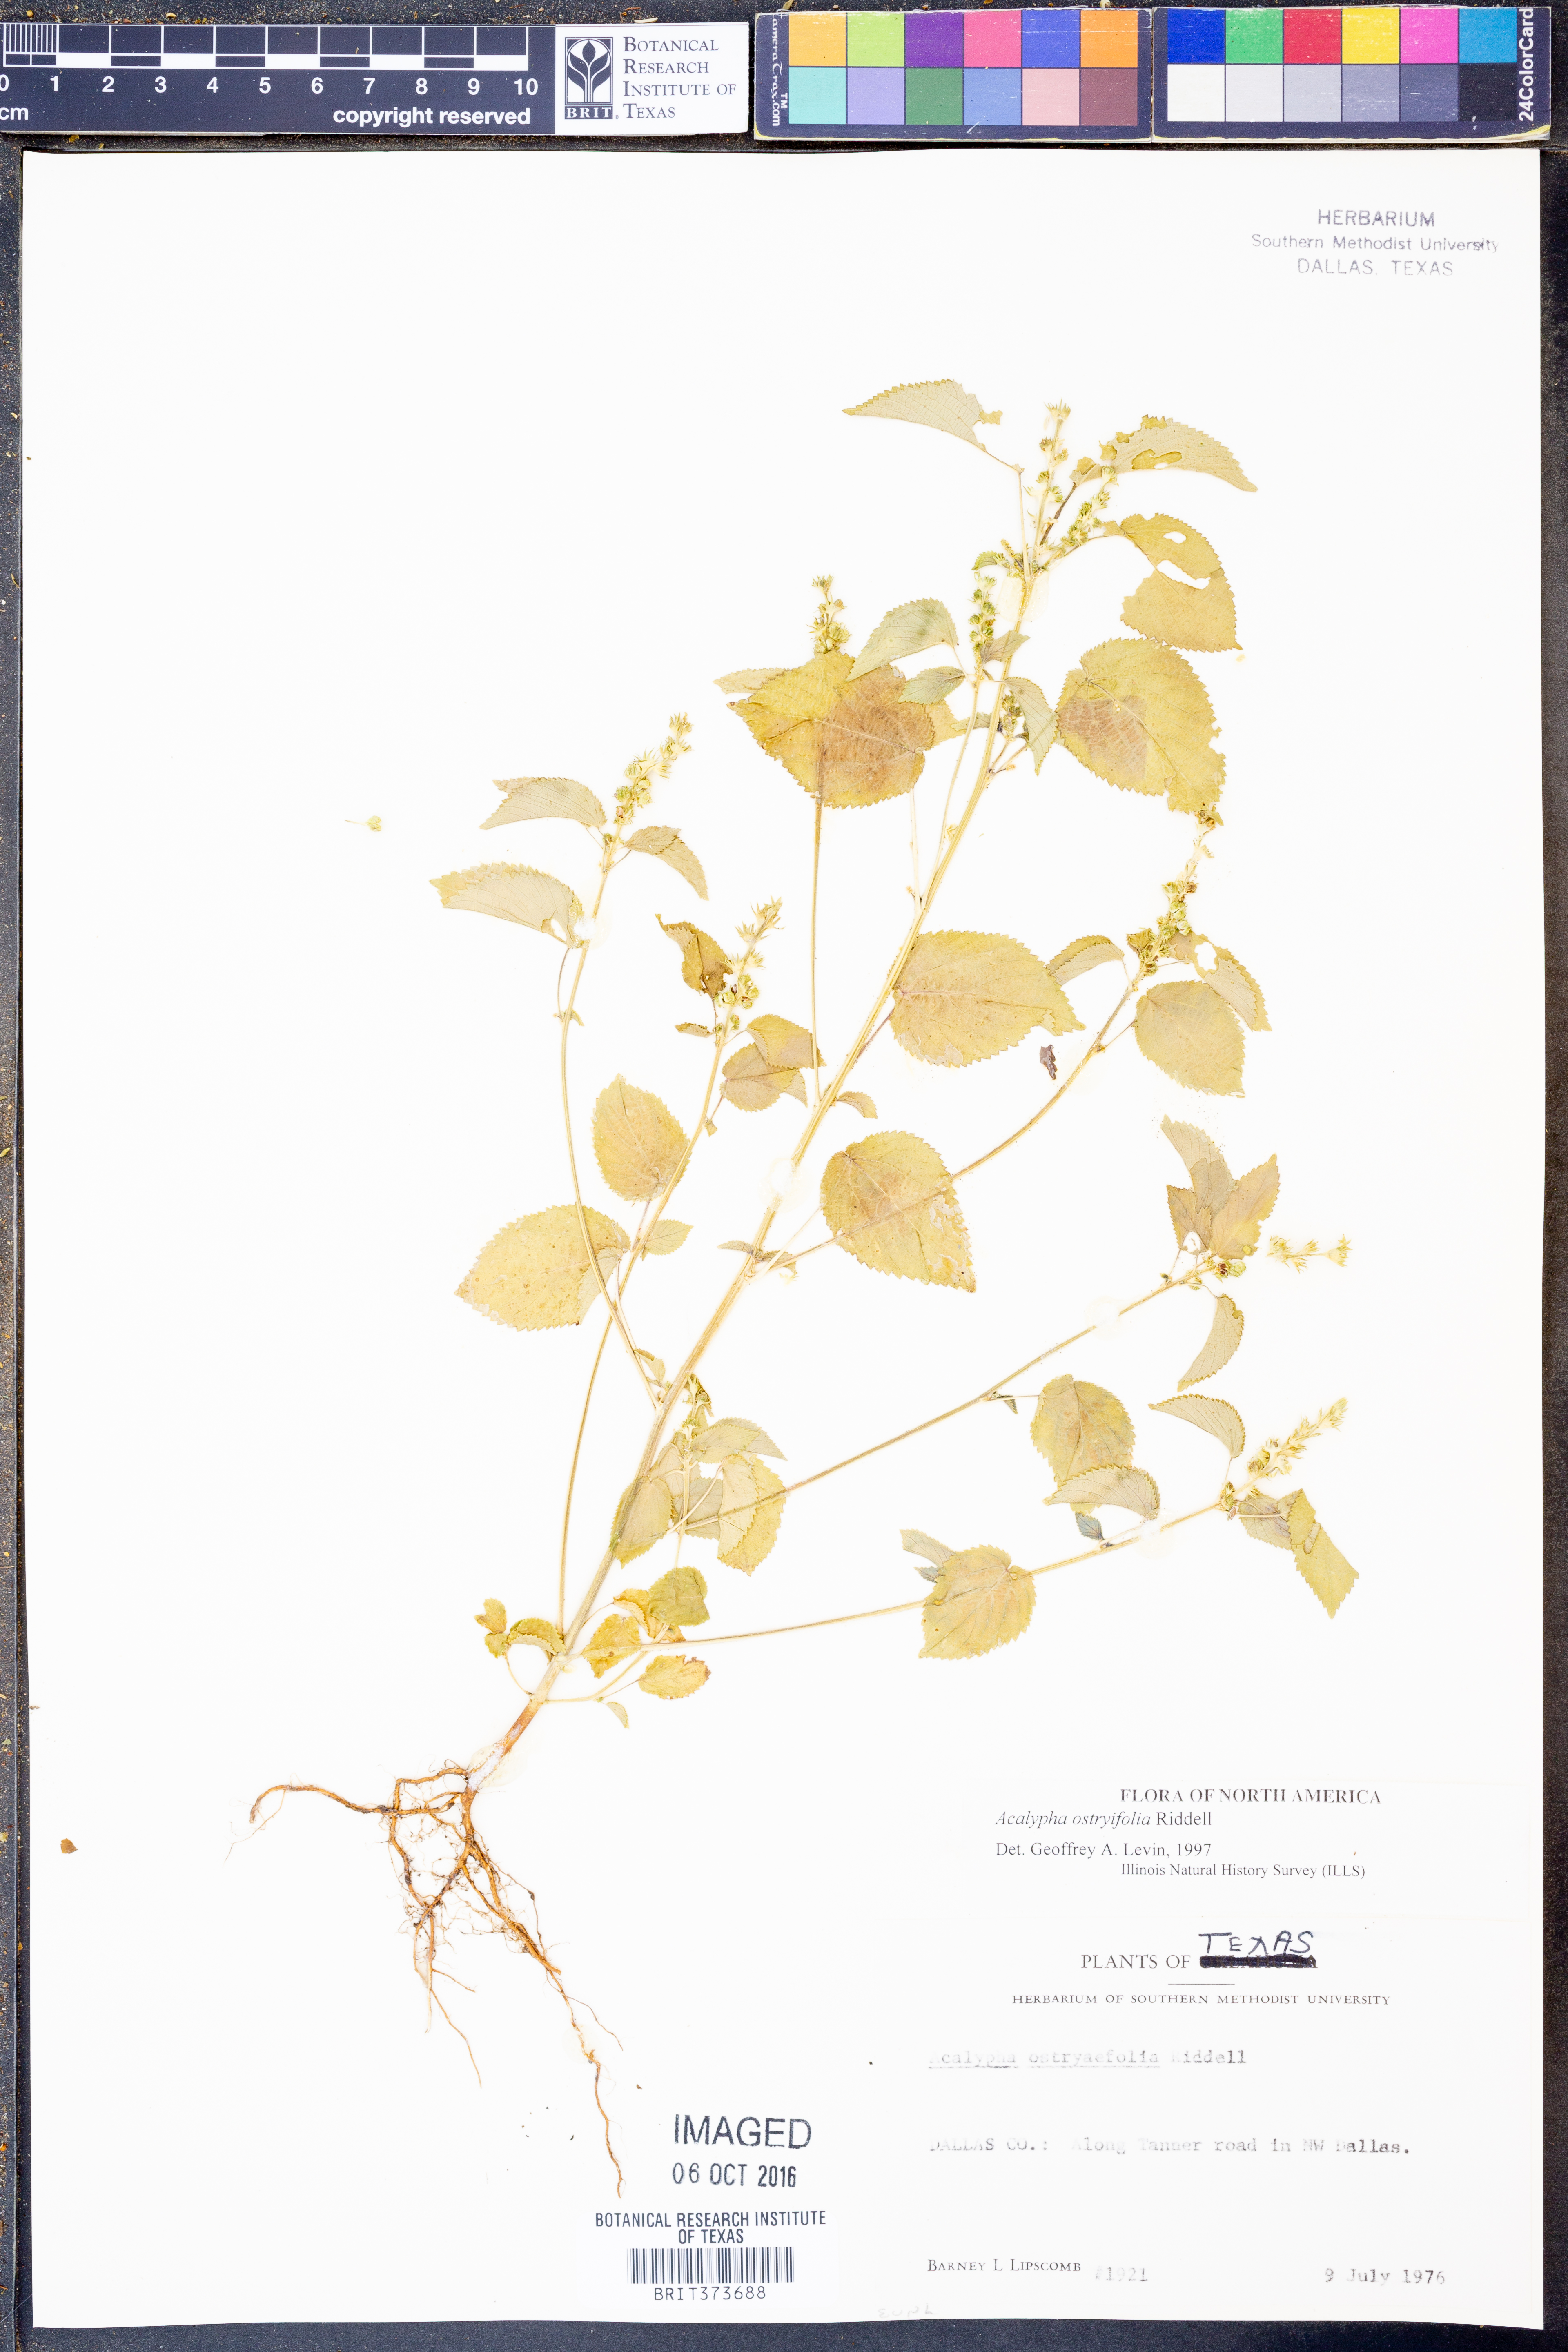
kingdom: Plantae
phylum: Tracheophyta
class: Magnoliopsida
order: Malpighiales
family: Euphorbiaceae
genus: Acalypha
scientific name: Acalypha persimilis
